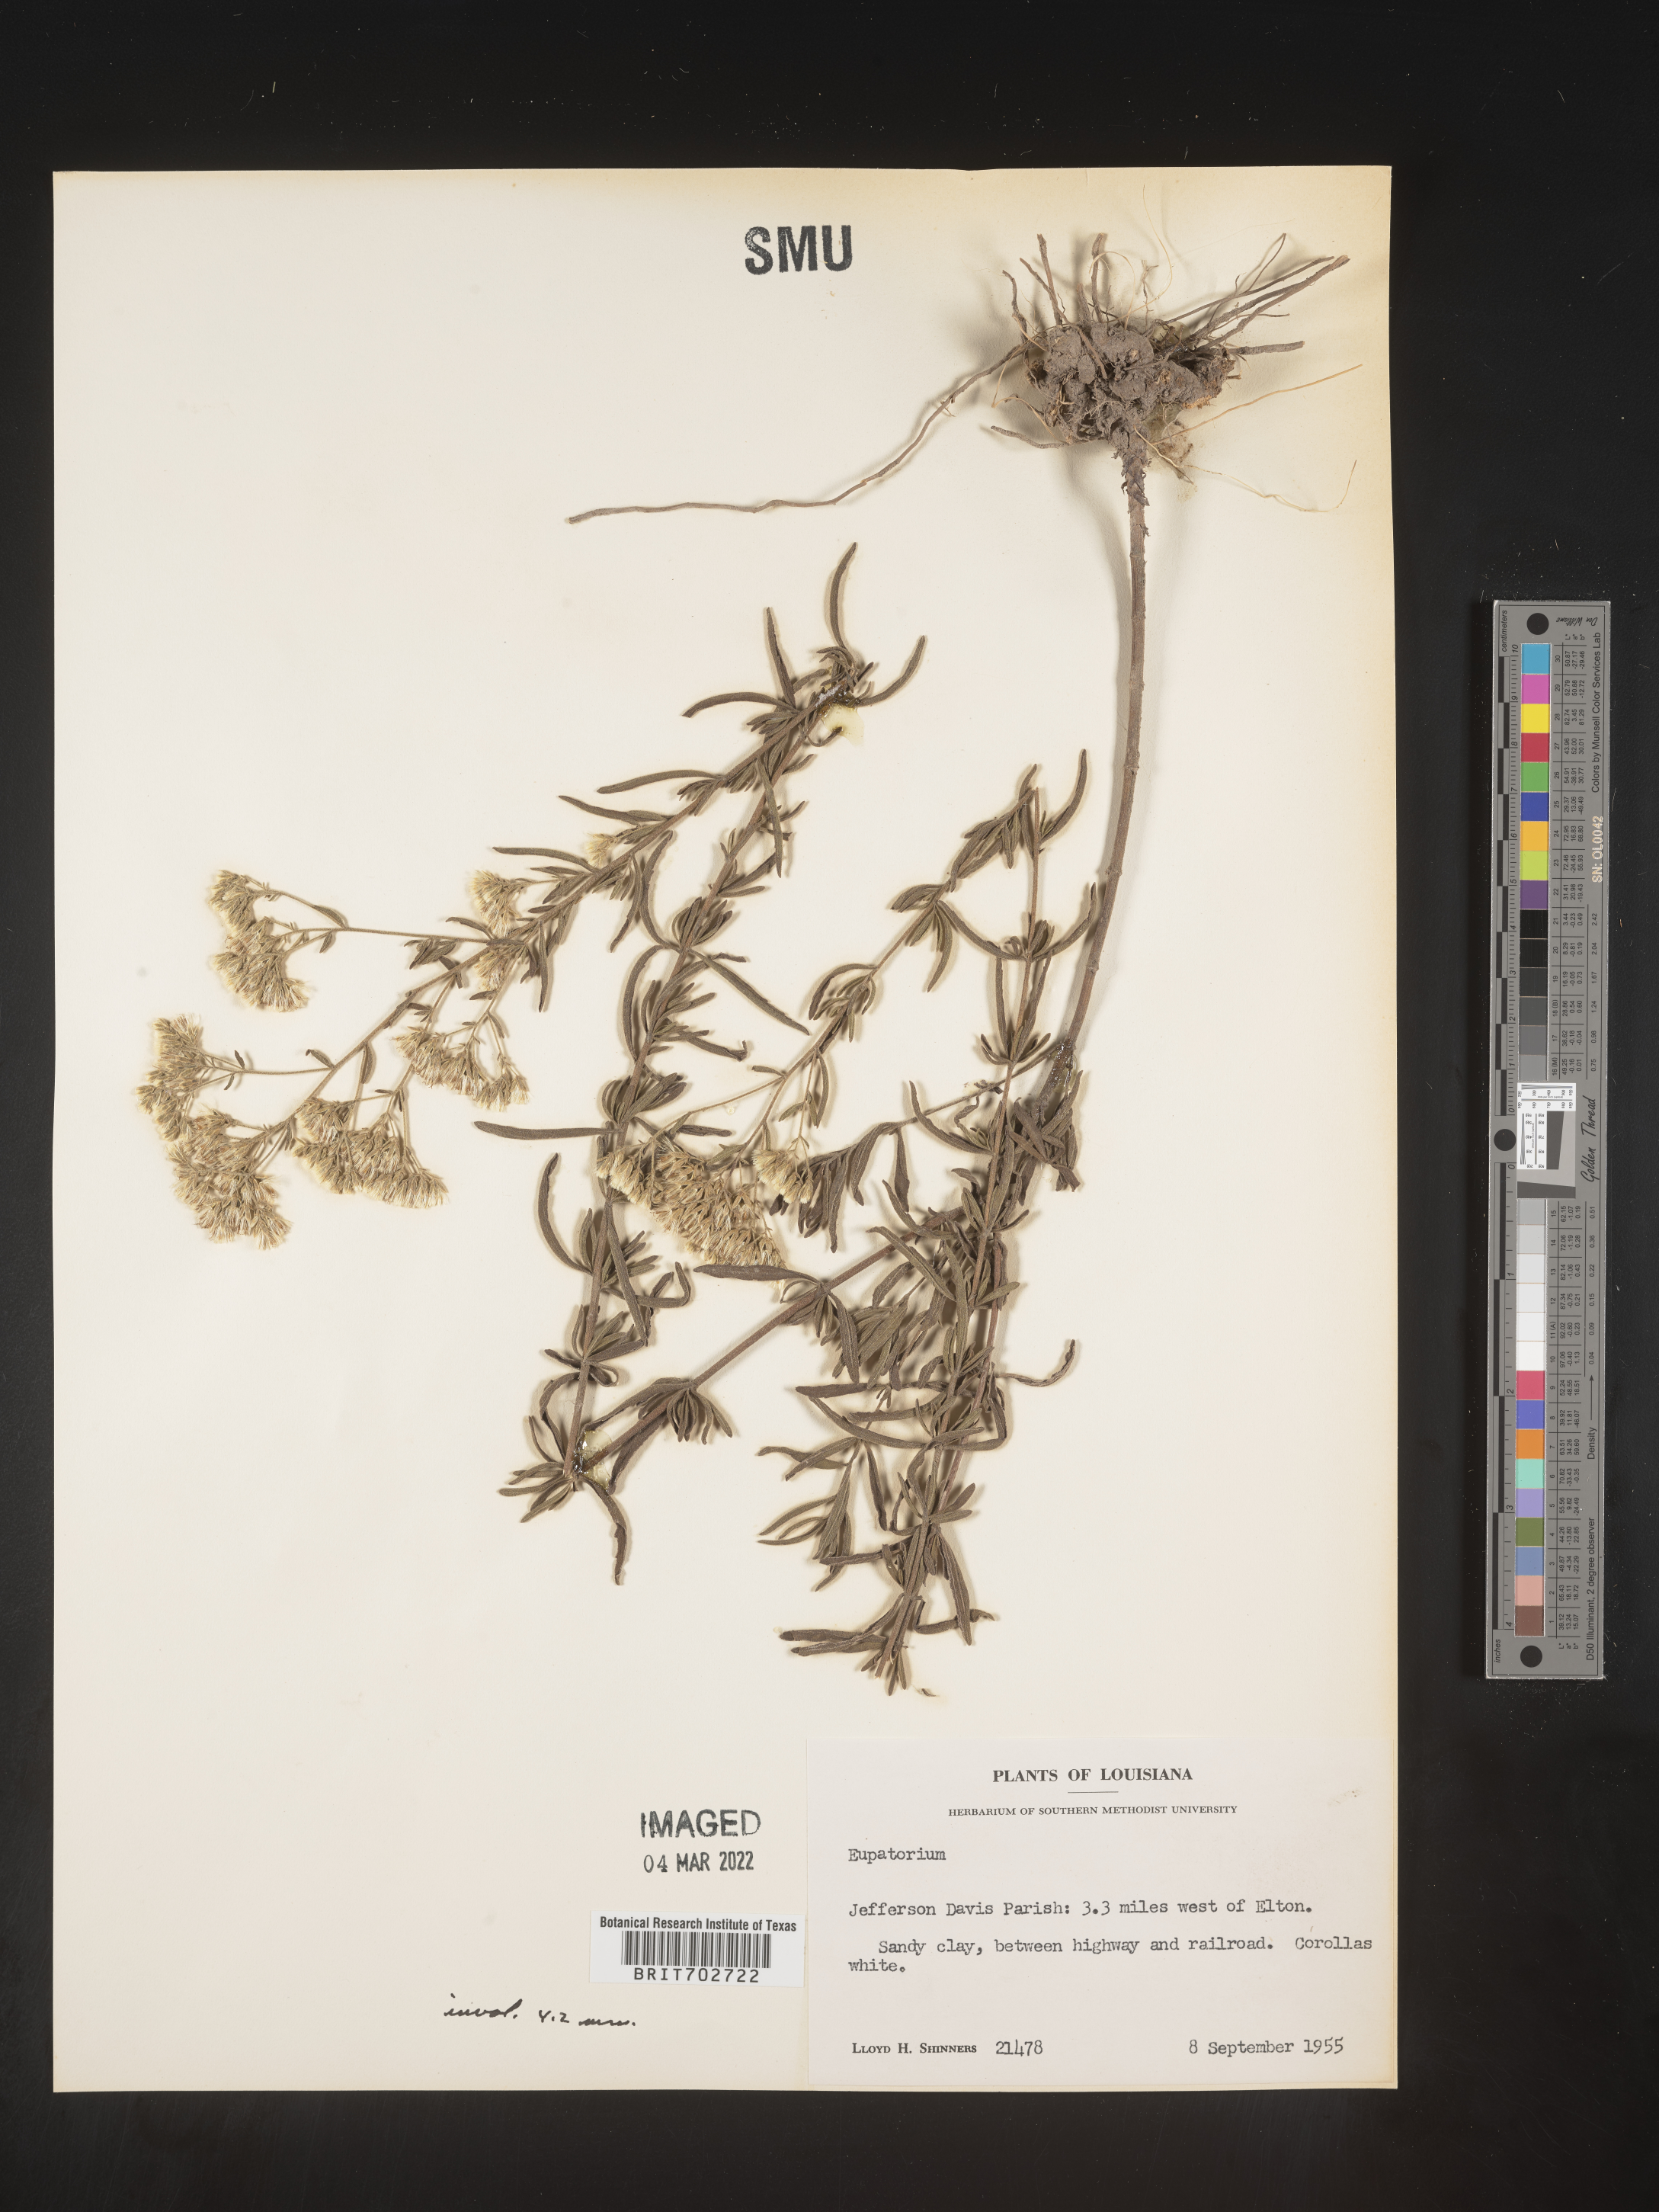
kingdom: Plantae
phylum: Tracheophyta
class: Magnoliopsida
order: Asterales
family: Asteraceae
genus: Eupatorium
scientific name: Eupatorium
